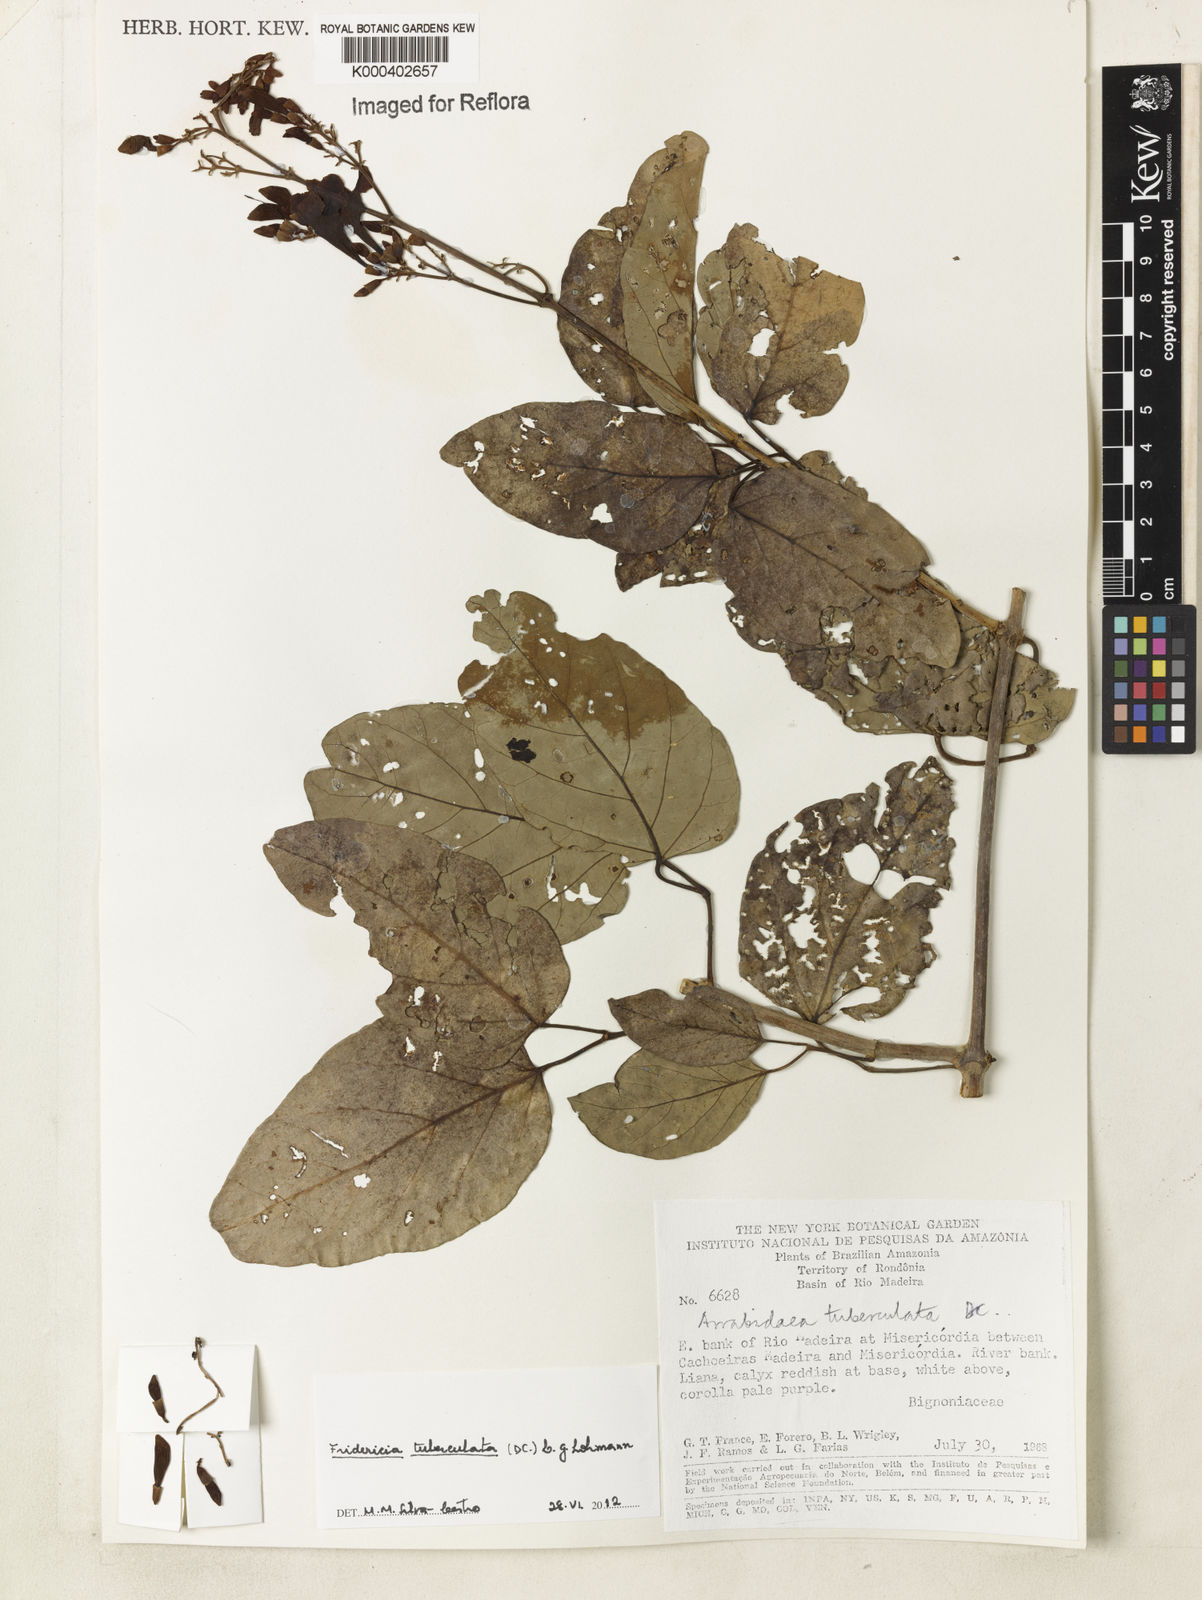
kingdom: Plantae
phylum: Tracheophyta
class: Magnoliopsida
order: Lamiales
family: Bignoniaceae
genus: Fridericia
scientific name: Fridericia tuberculata
